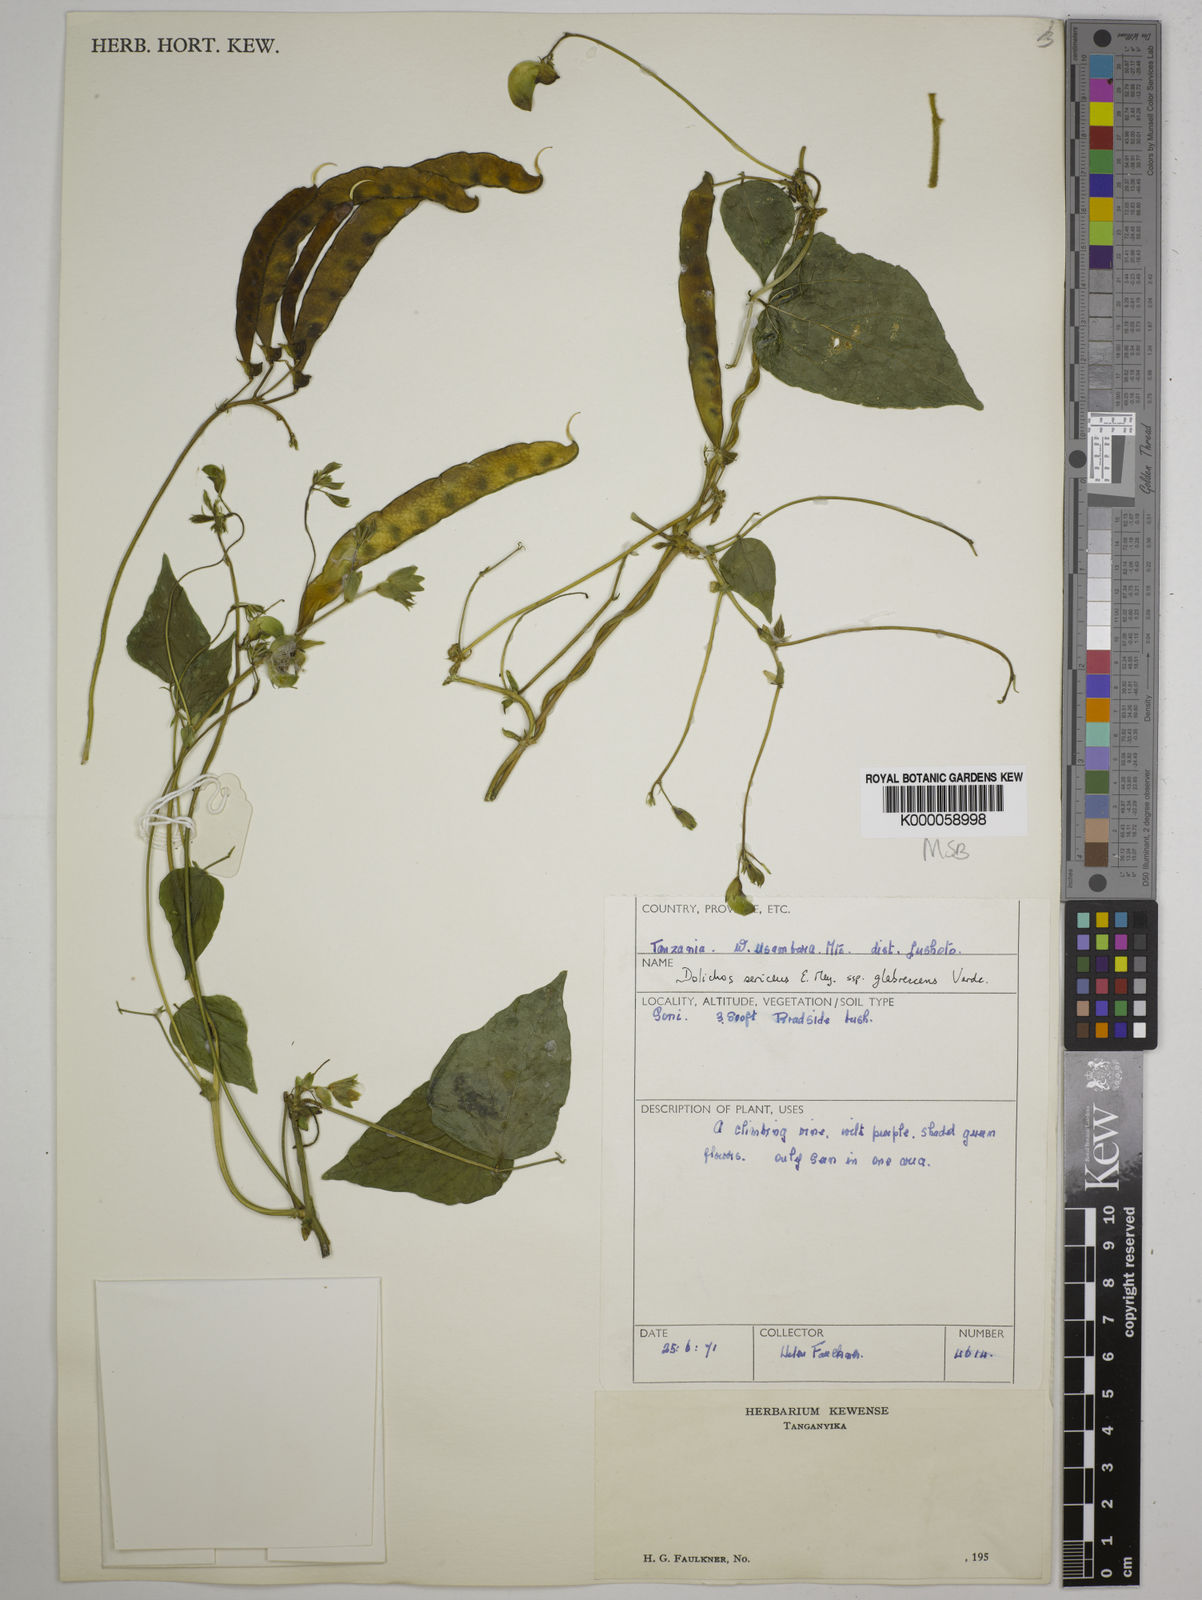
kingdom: Plantae
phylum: Tracheophyta
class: Magnoliopsida
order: Fabales
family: Fabaceae
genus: Dolichos
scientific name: Dolichos sericeus
